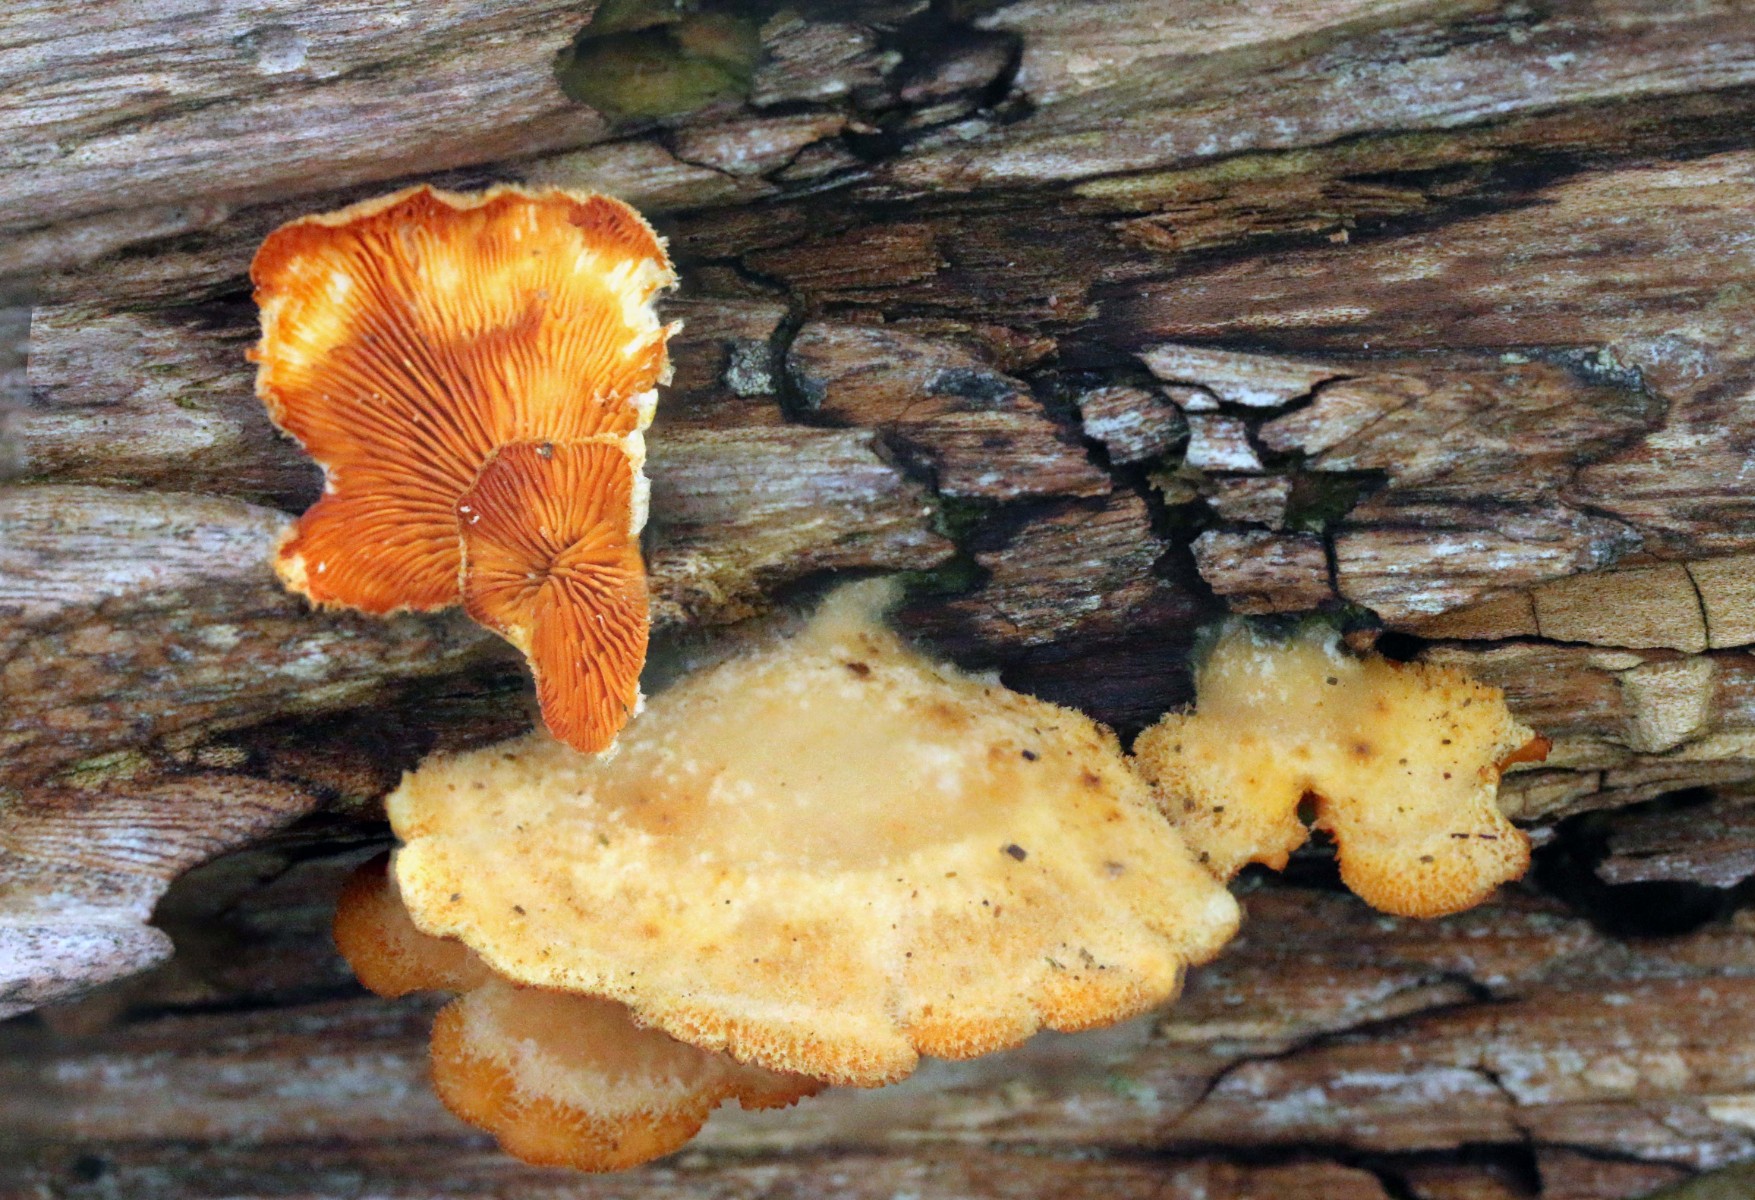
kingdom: Fungi
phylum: Basidiomycota
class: Agaricomycetes
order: Agaricales
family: Phyllotopsidaceae
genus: Phyllotopsis
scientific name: Phyllotopsis nidulans
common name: okkerblad
